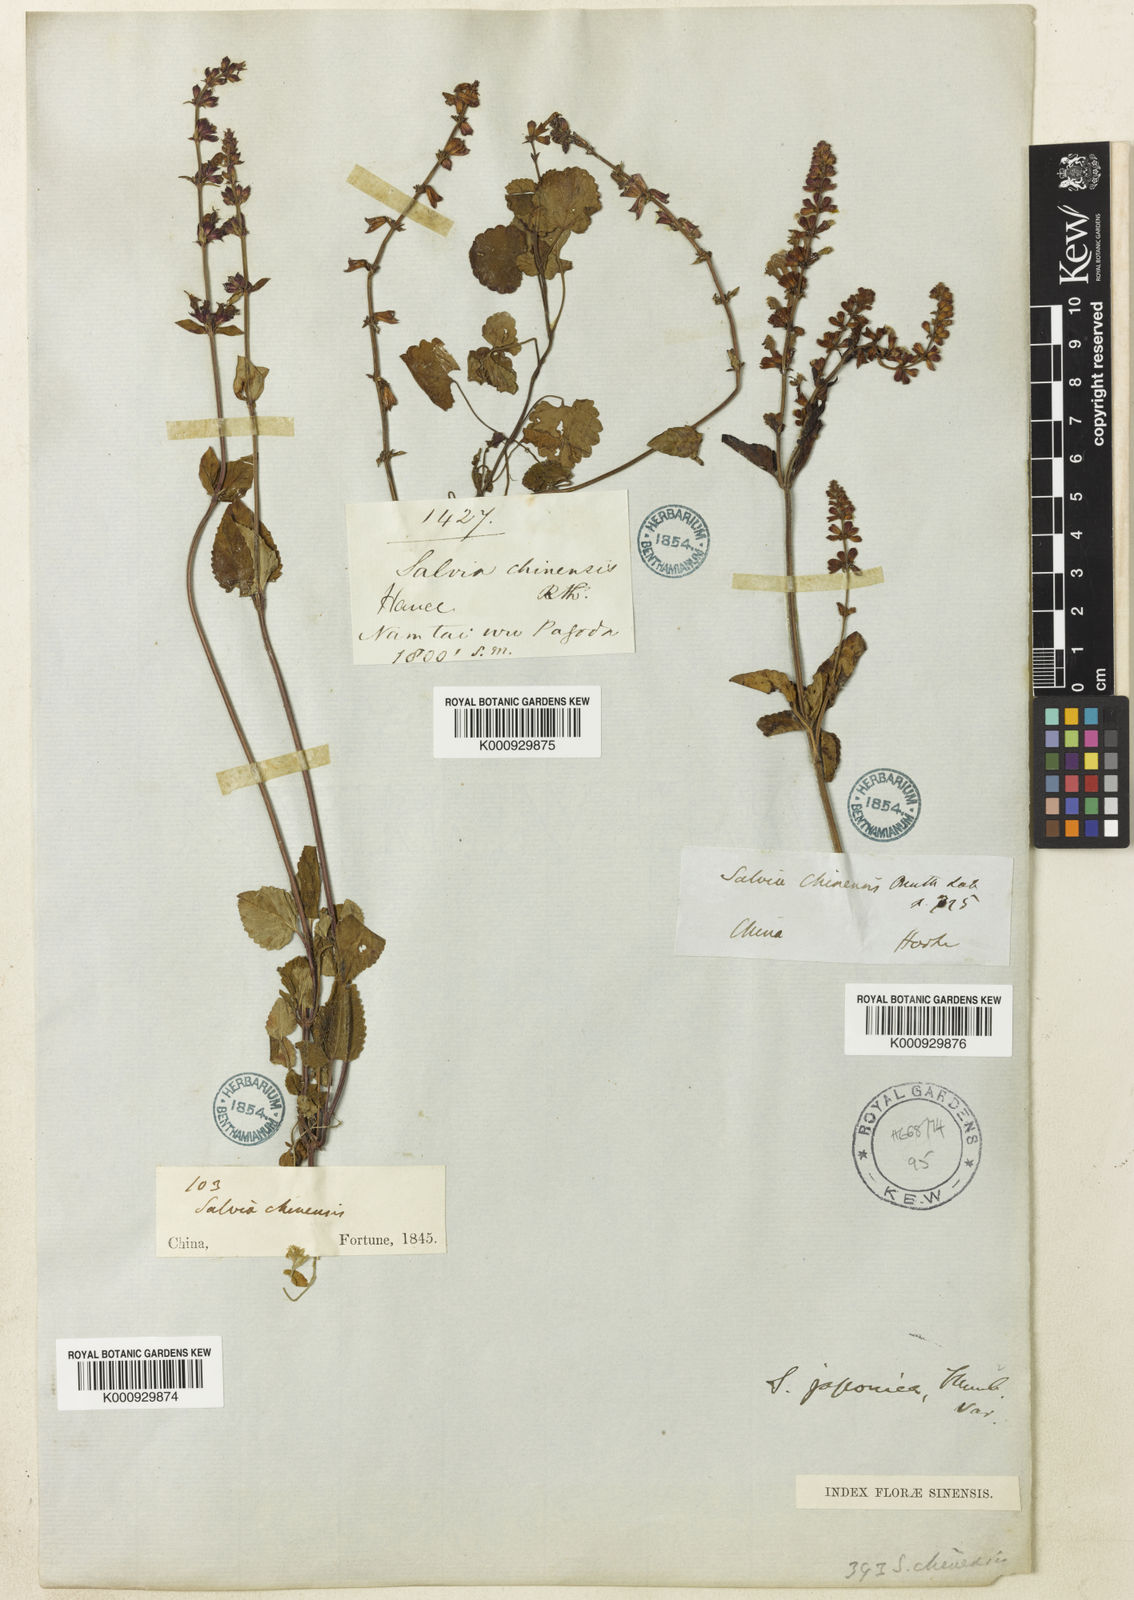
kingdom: Plantae
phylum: Tracheophyta
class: Magnoliopsida
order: Lamiales
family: Lamiaceae
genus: Salvia
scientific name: Salvia japonica
